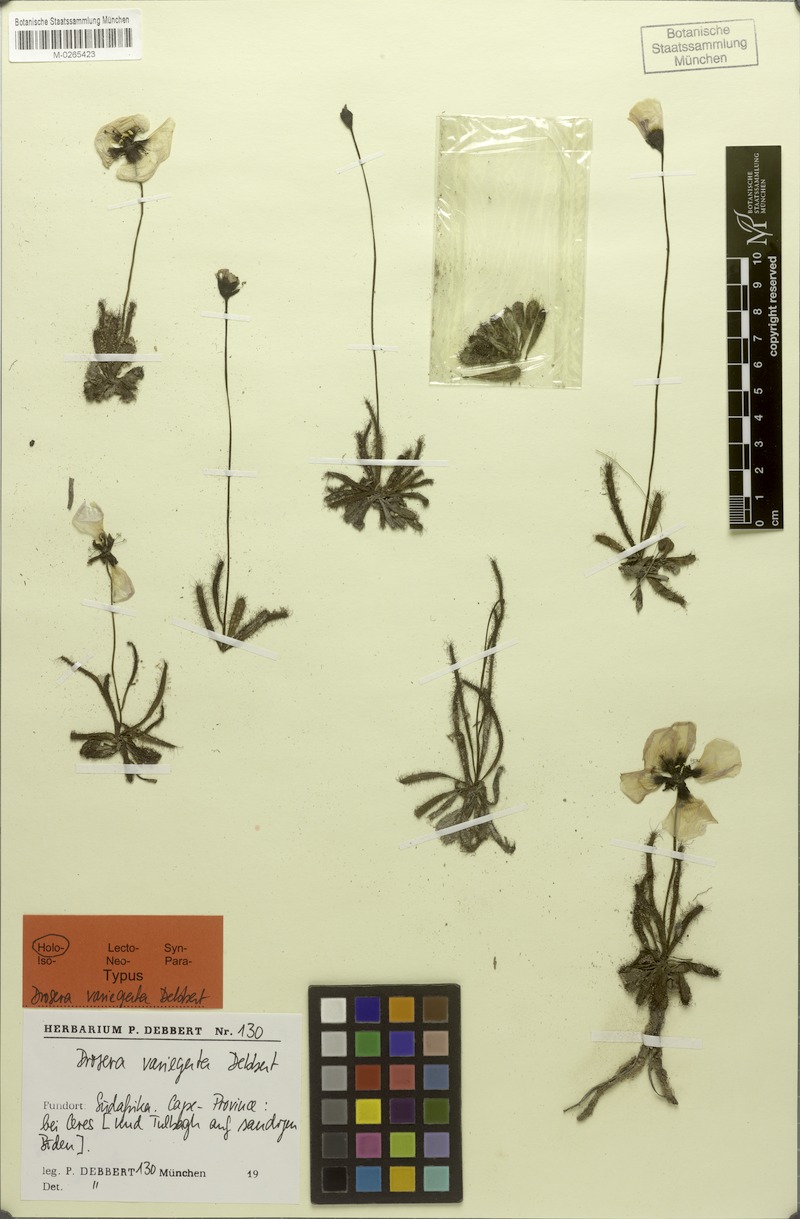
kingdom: Plantae
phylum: Tracheophyta
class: Magnoliopsida
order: Caryophyllales
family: Droseraceae
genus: Drosera
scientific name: Drosera cistiflora
